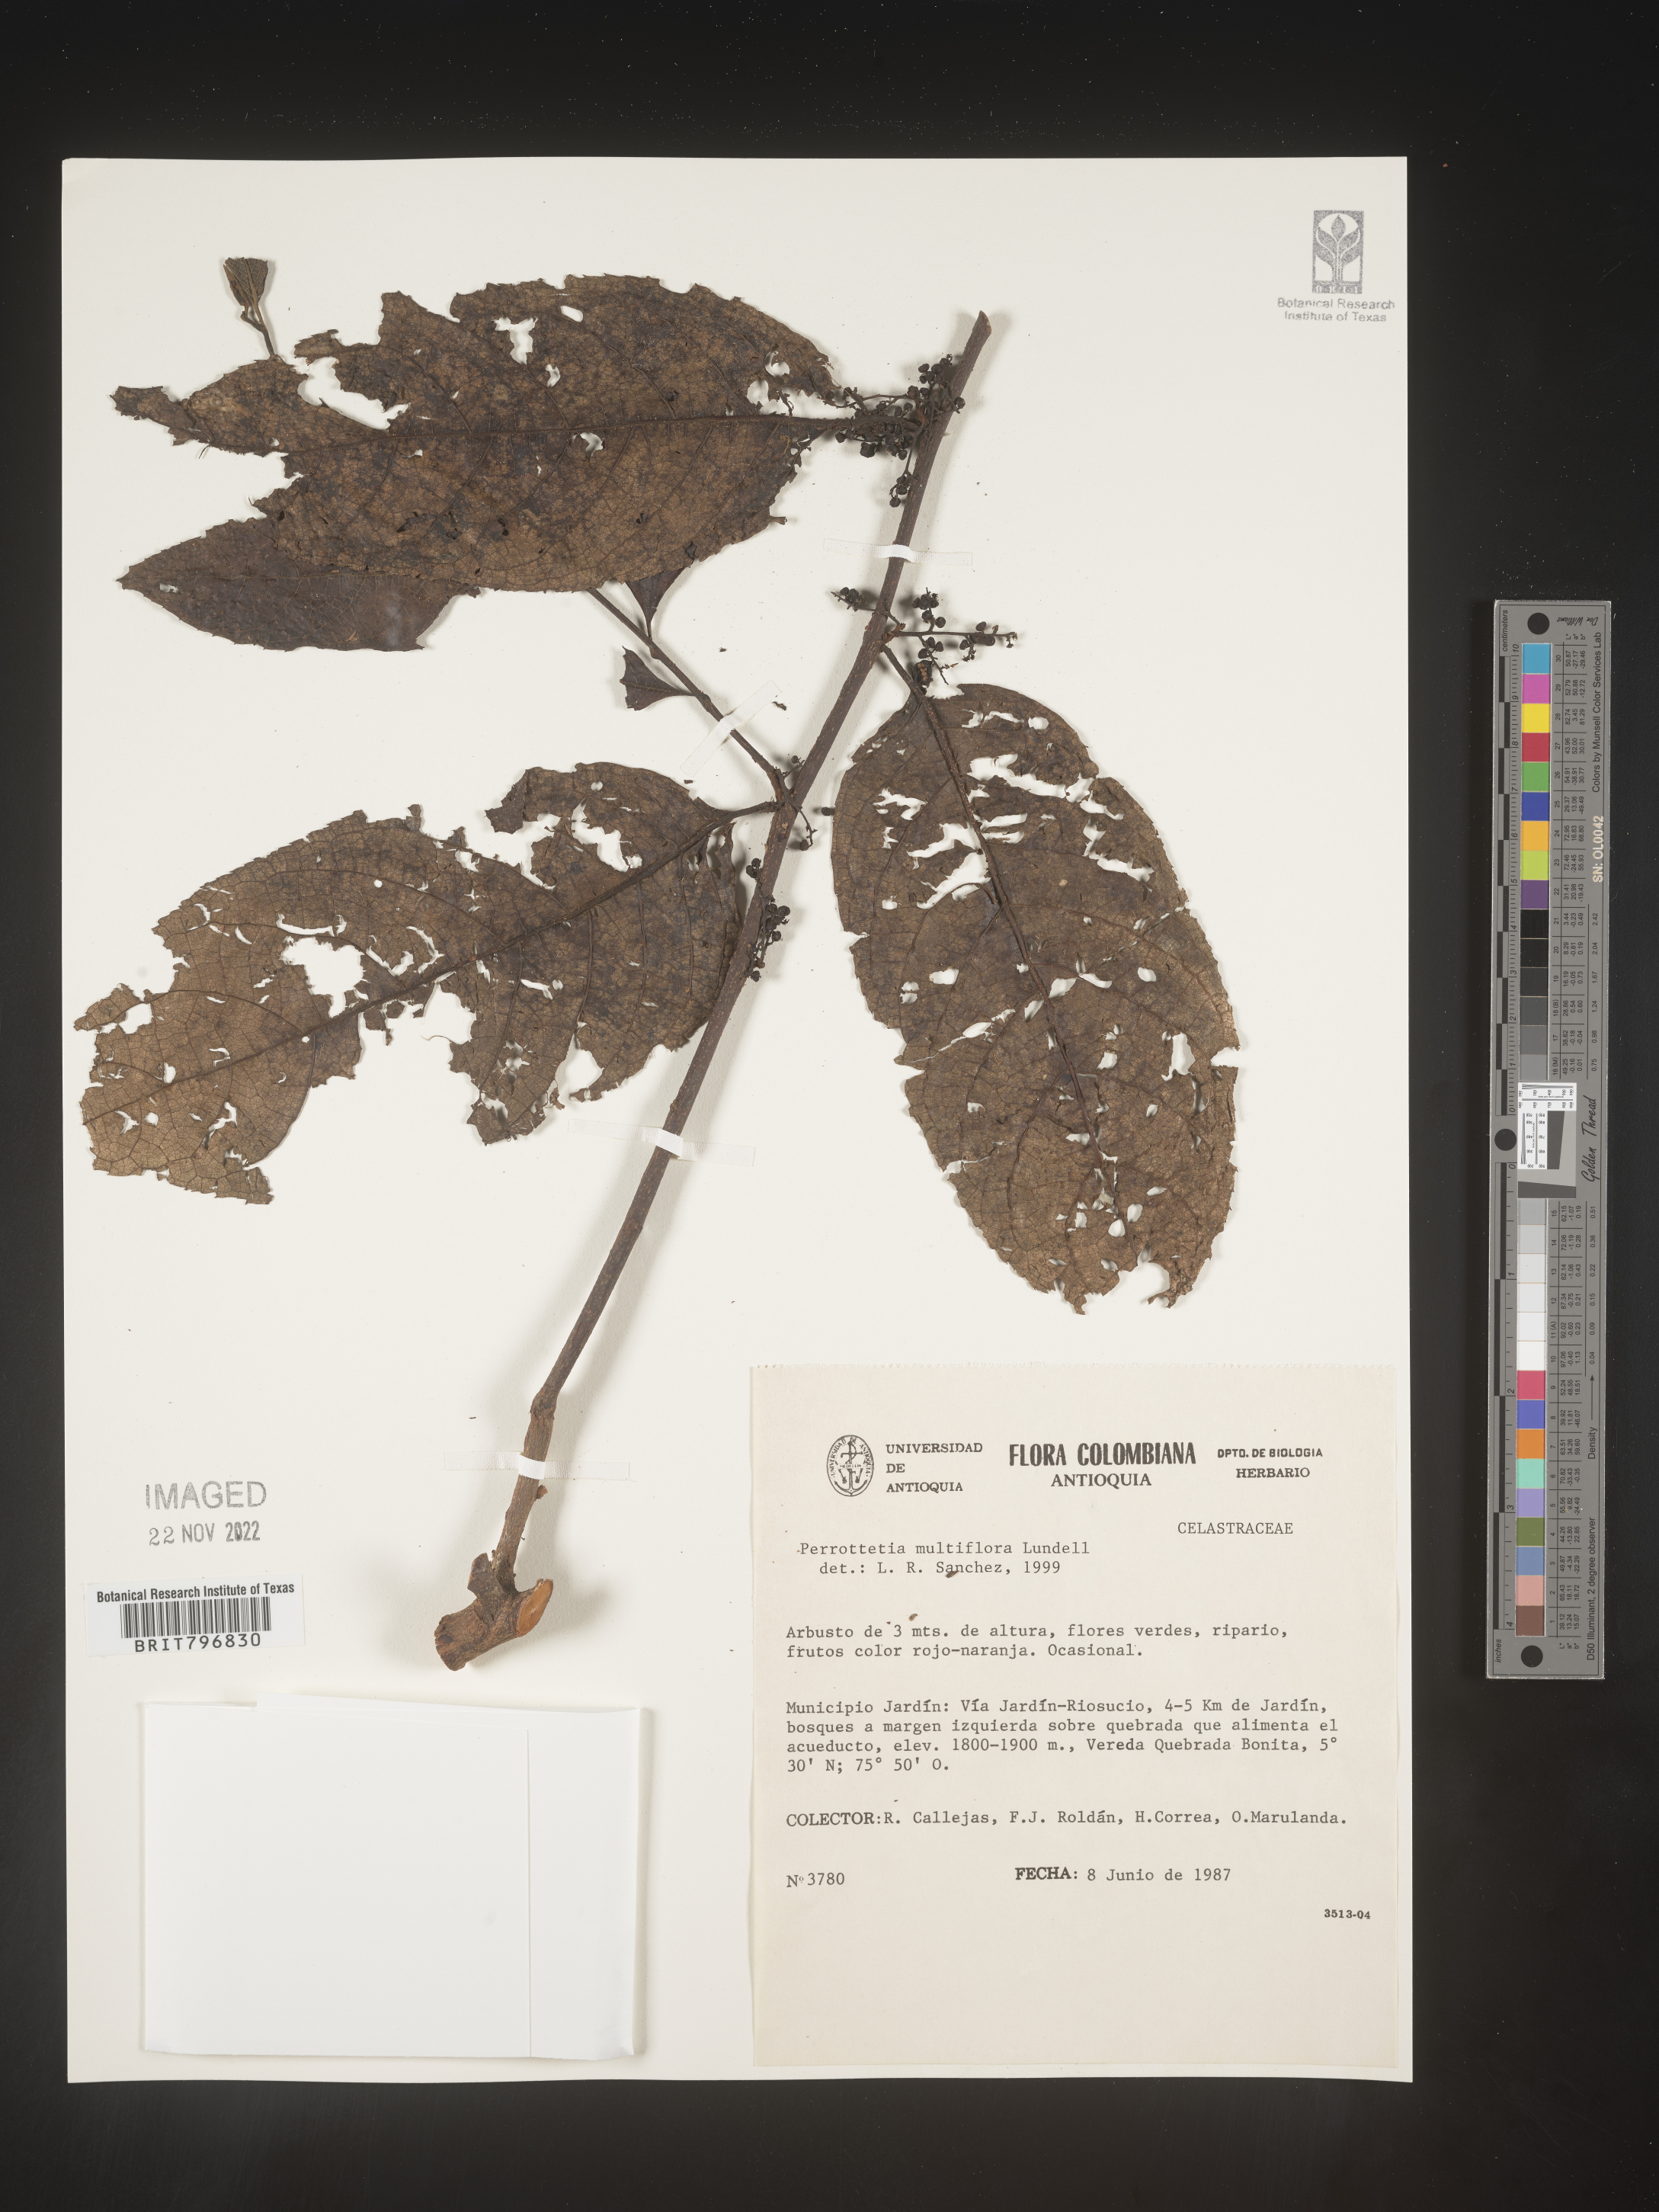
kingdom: Plantae
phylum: Tracheophyta
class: Magnoliopsida
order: Huerteales
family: Dipentodontaceae
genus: Perrottetia
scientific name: Perrottetia
